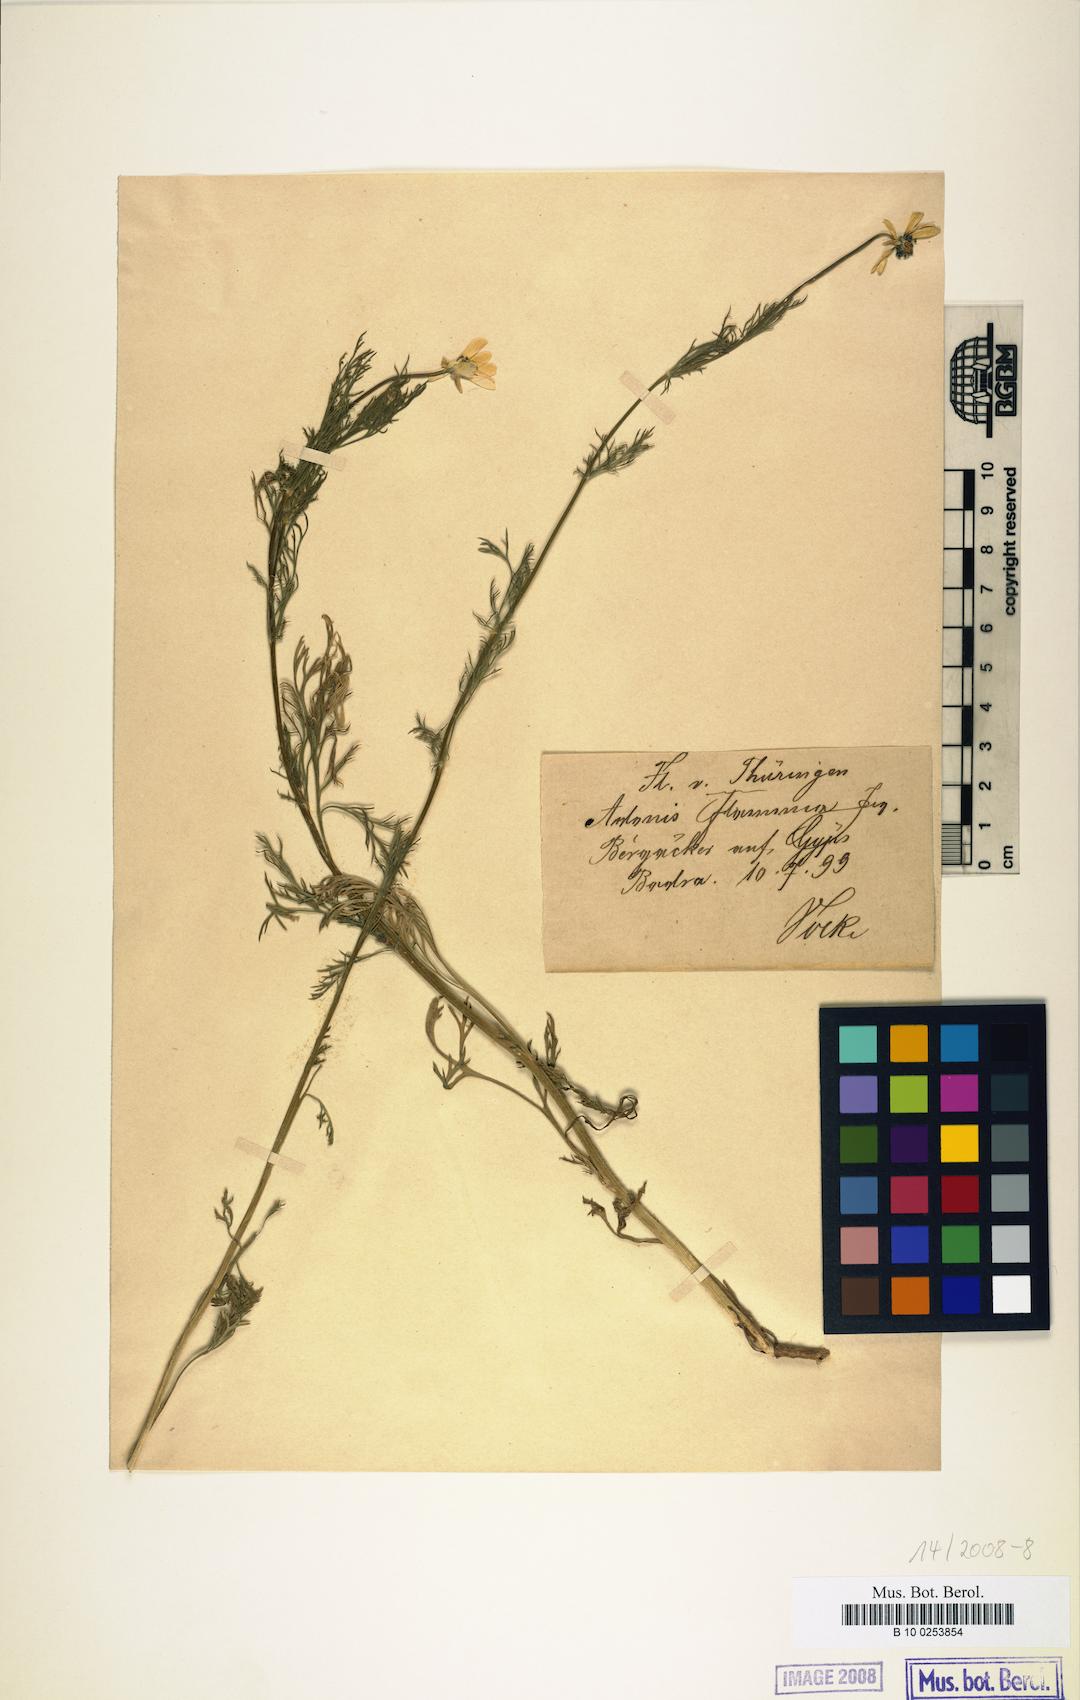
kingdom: Plantae
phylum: Tracheophyta
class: Magnoliopsida
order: Ranunculales
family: Ranunculaceae
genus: Adonis
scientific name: Adonis flammea
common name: Large pheasant's-eye
